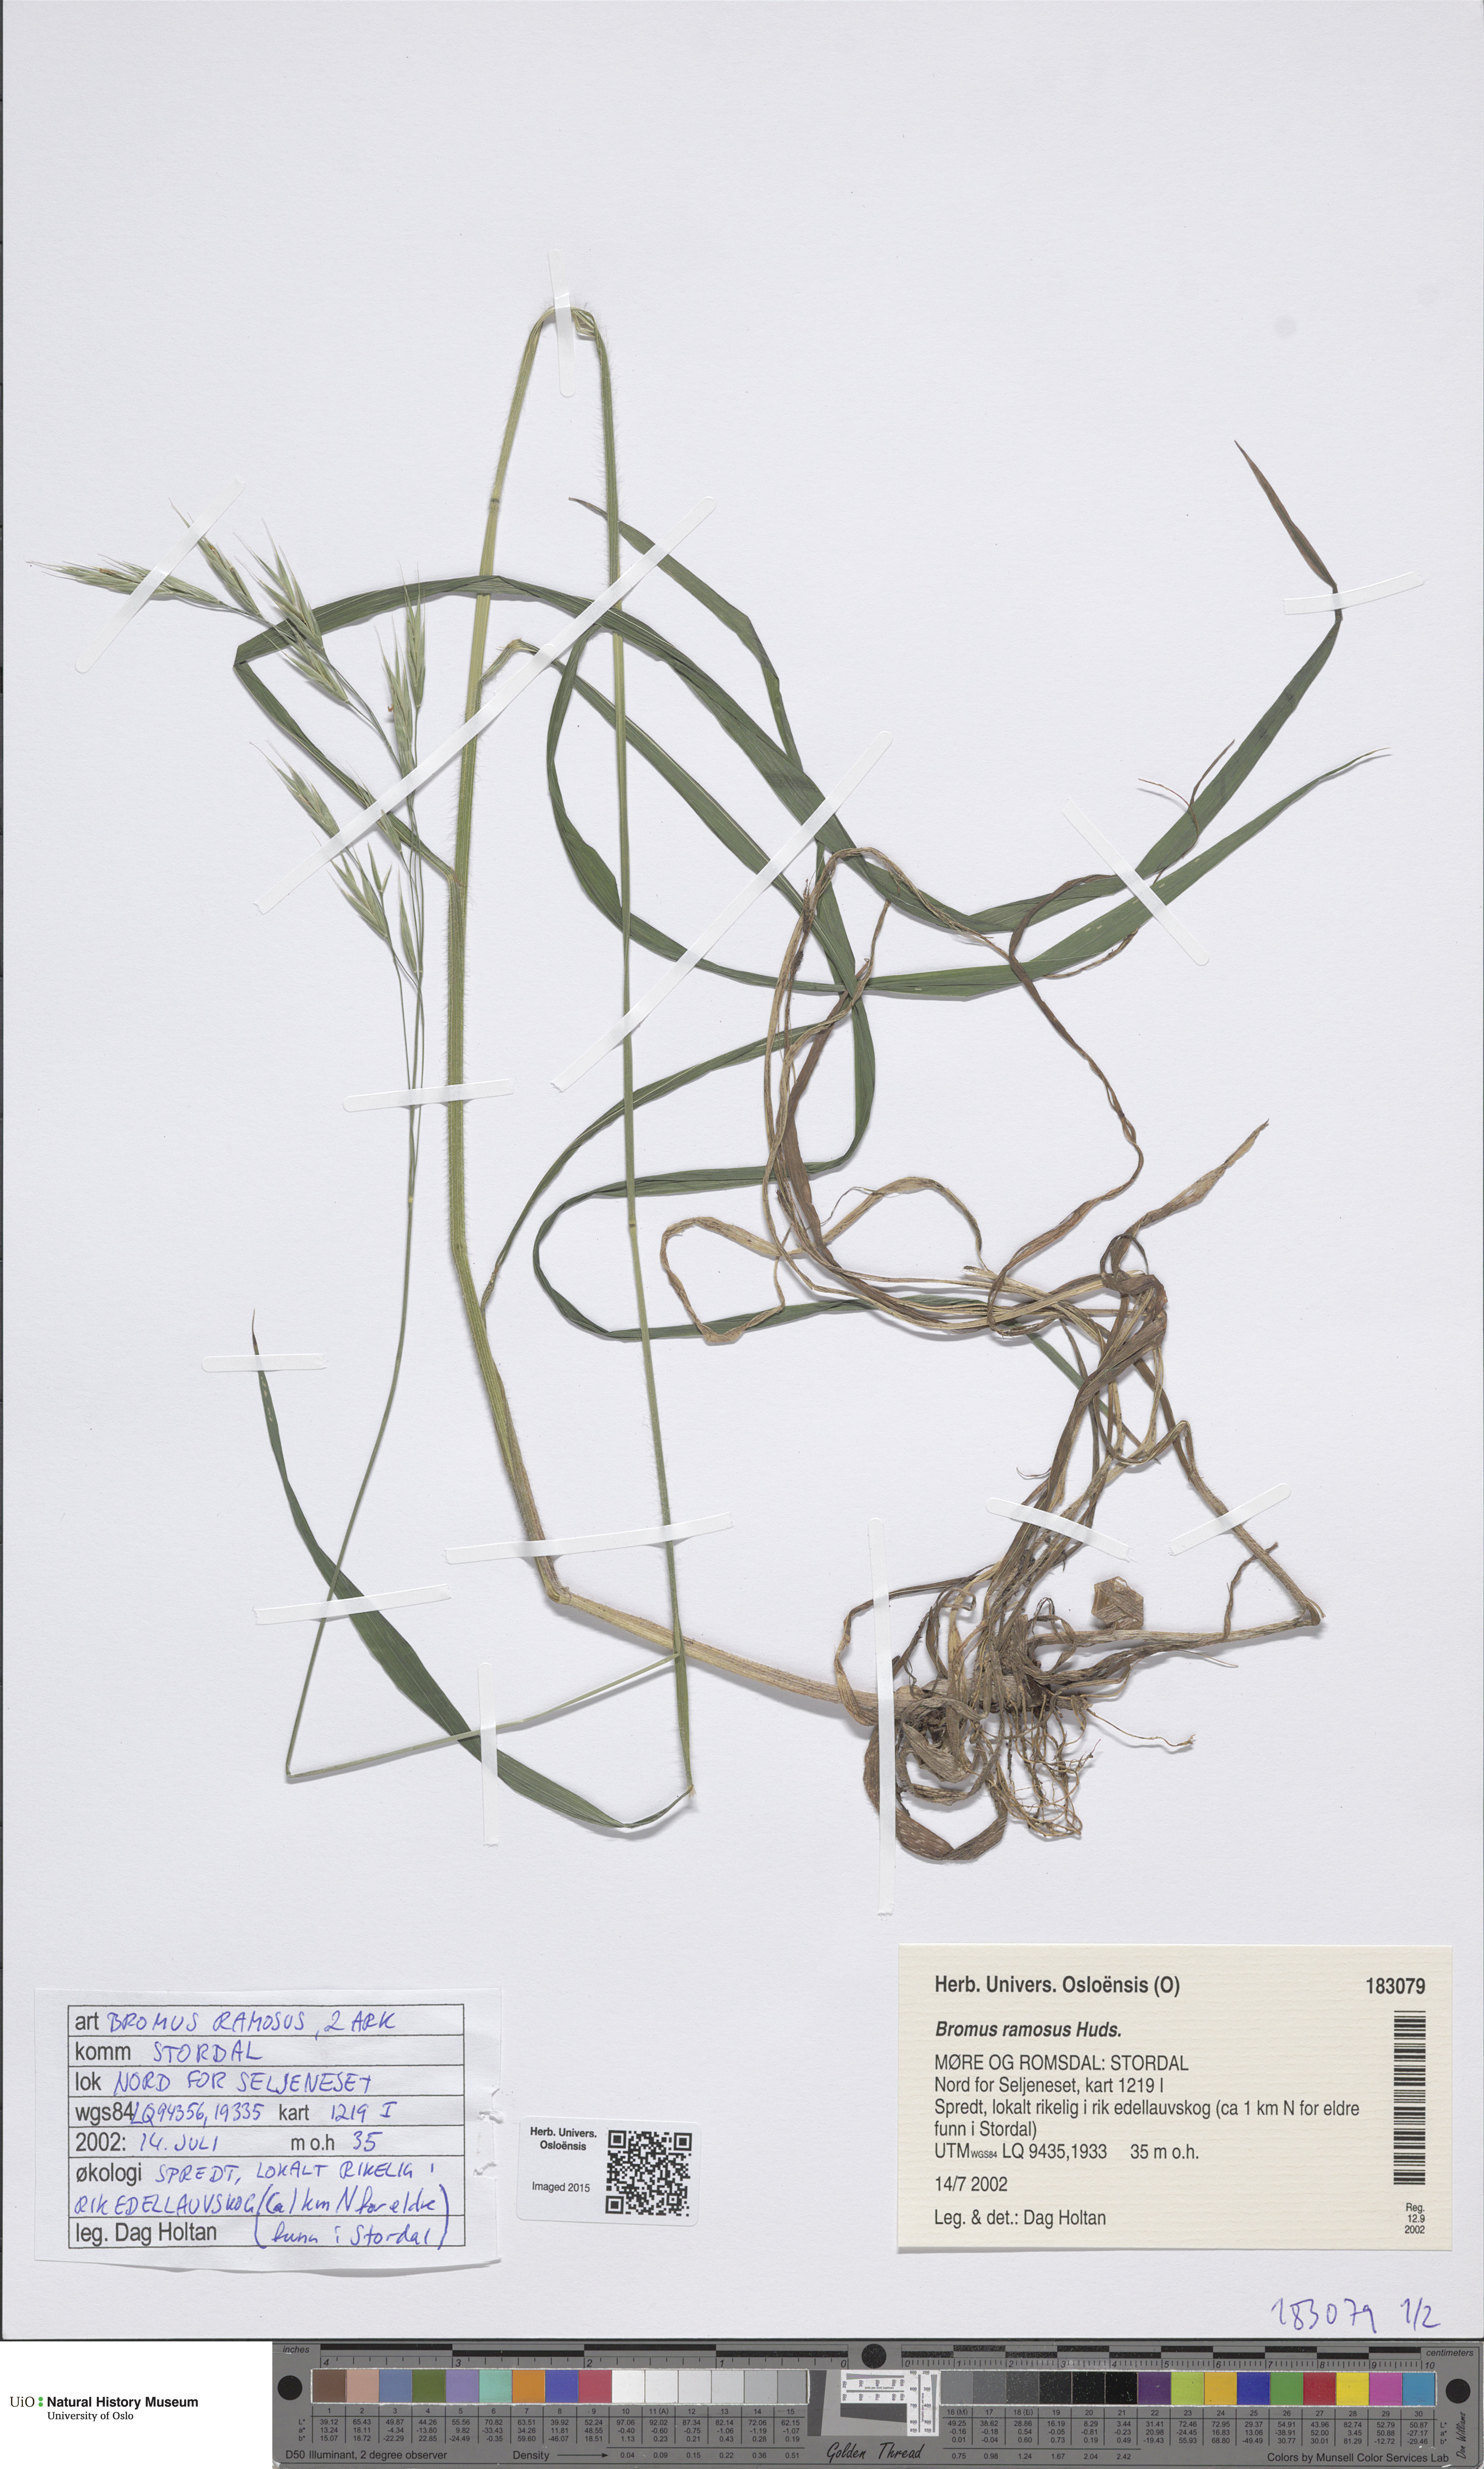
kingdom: Plantae
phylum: Tracheophyta
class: Liliopsida
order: Poales
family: Poaceae
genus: Bromus
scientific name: Bromus ramosus
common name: Hairy brome
